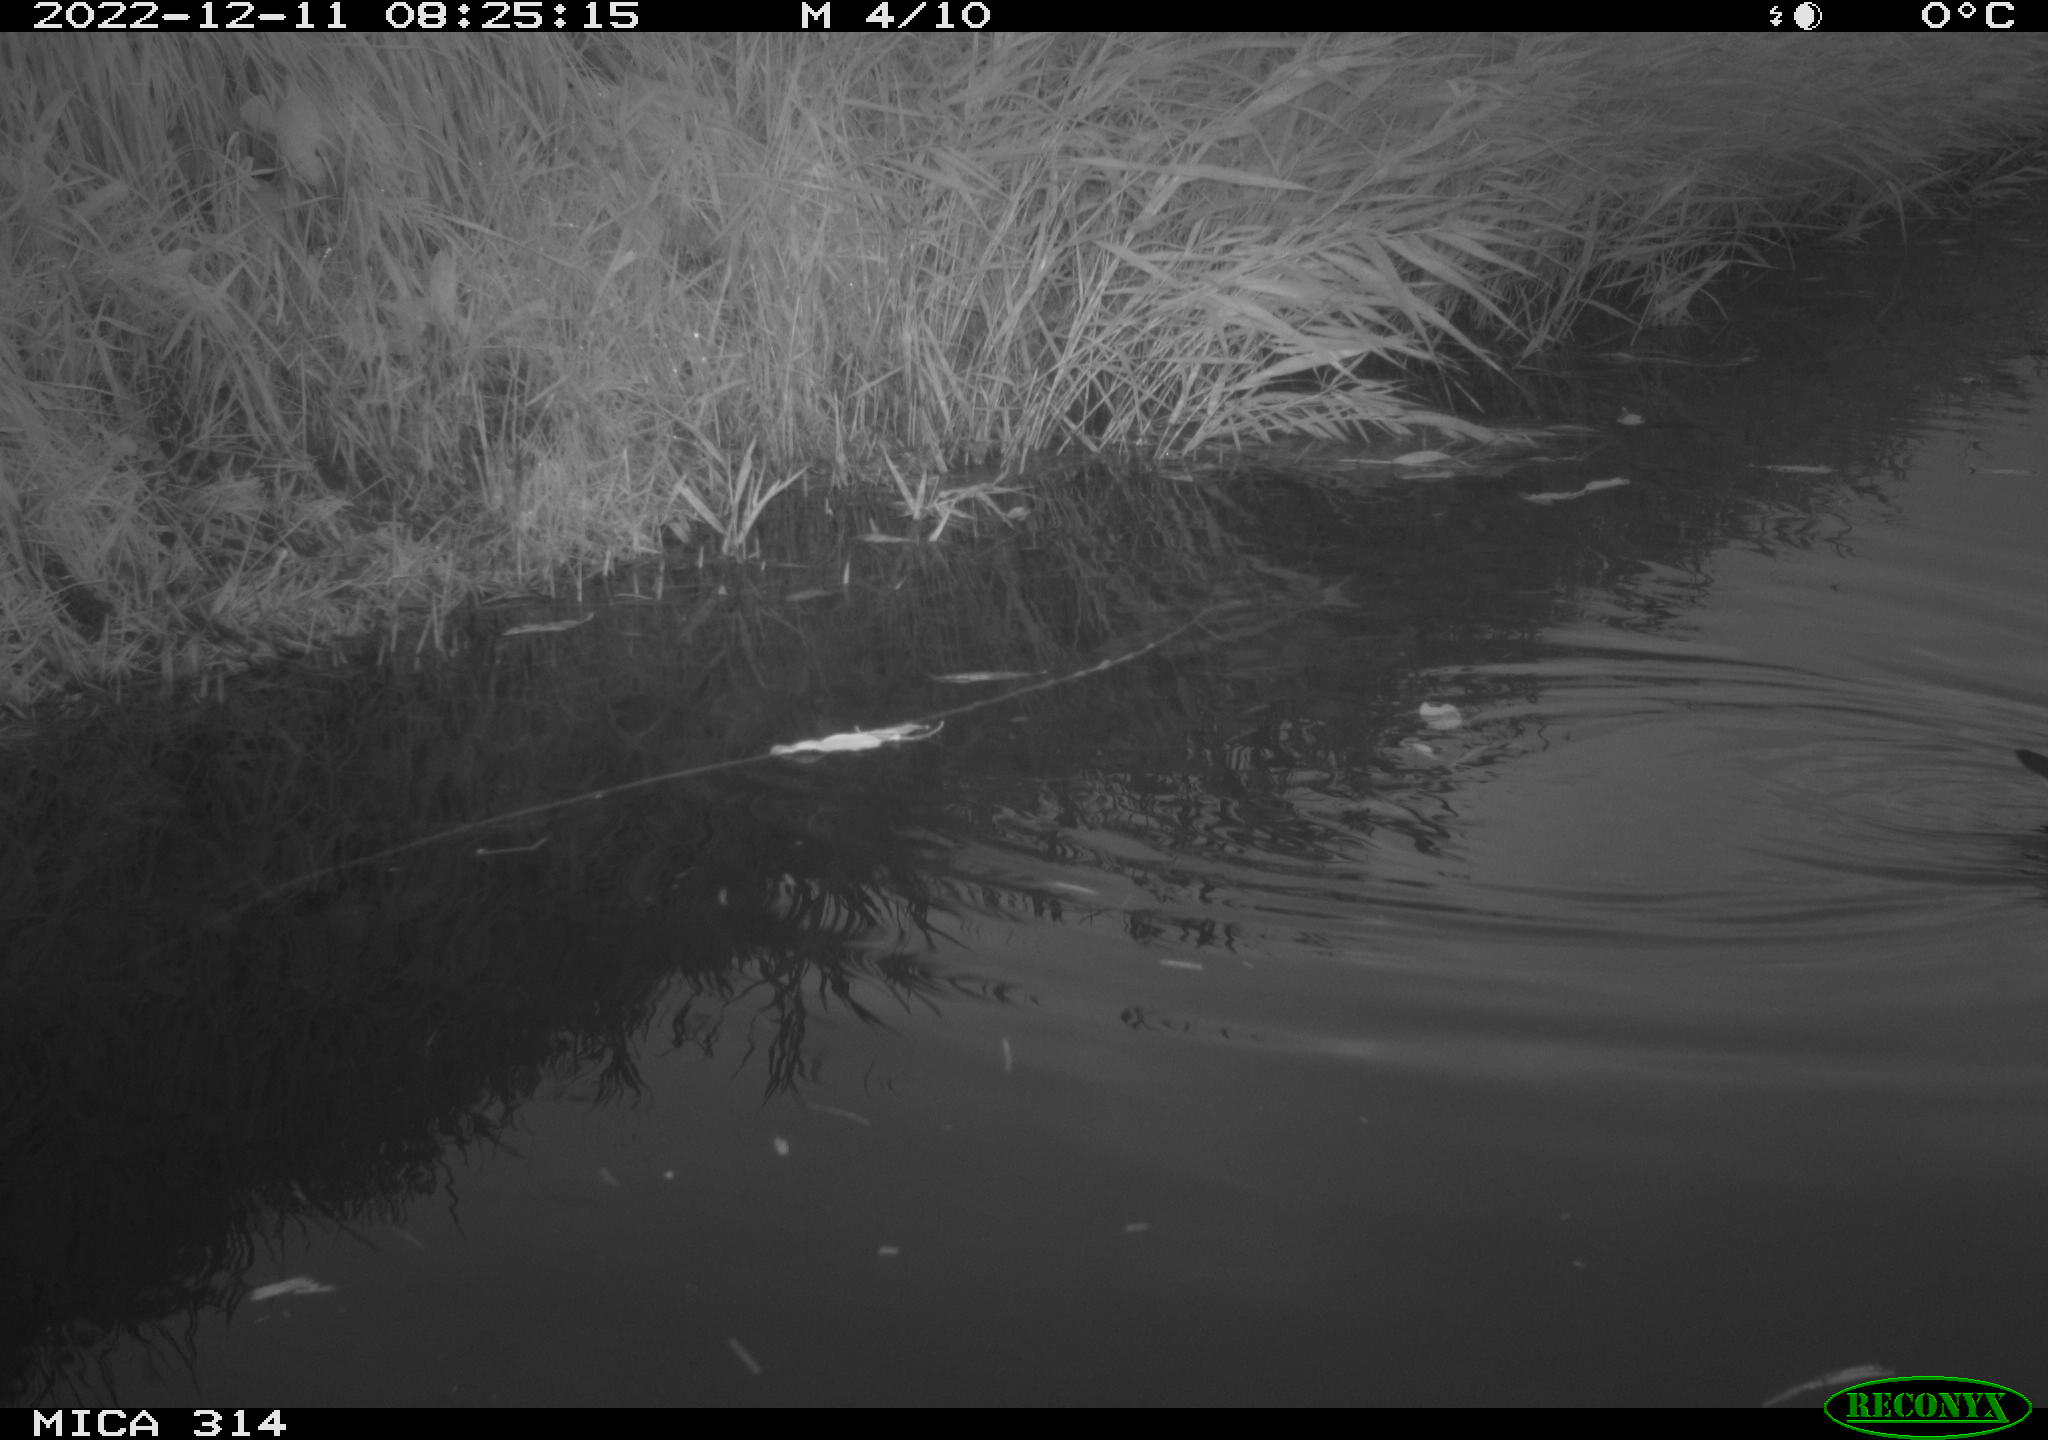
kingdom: Animalia
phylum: Chordata
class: Aves
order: Gruiformes
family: Rallidae
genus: Gallinula
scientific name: Gallinula chloropus
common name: Common moorhen
